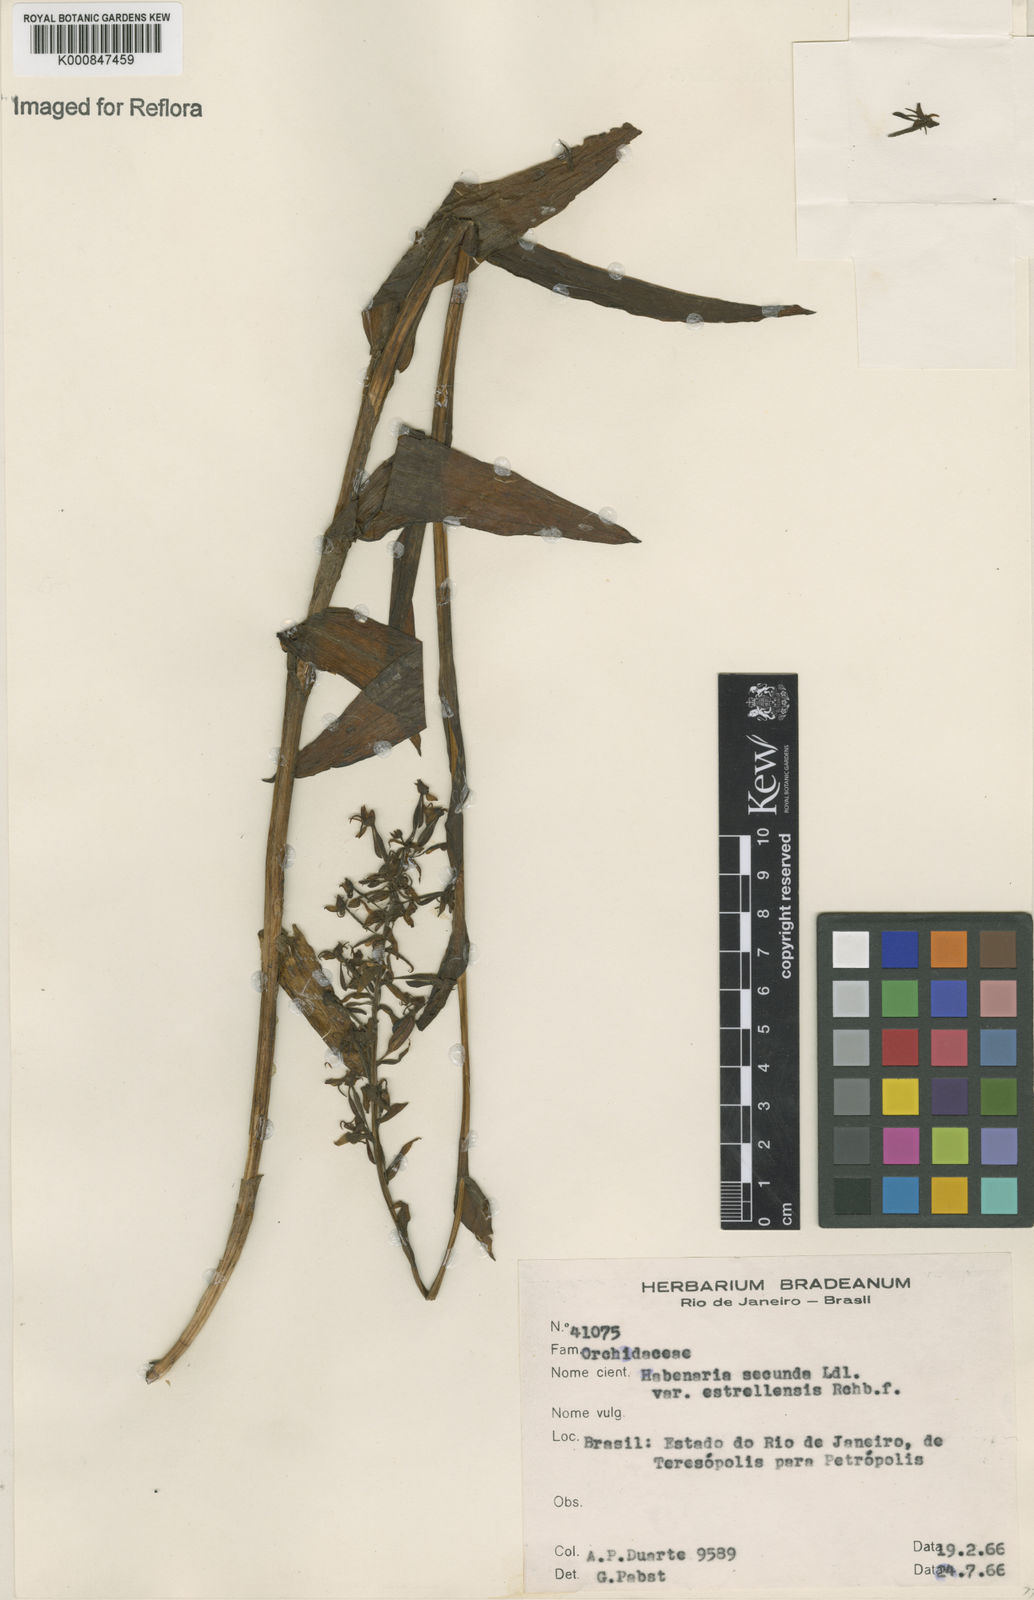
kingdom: Plantae
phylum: Tracheophyta
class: Liliopsida
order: Asparagales
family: Orchidaceae
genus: Habenaria
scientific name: Habenaria secunda
